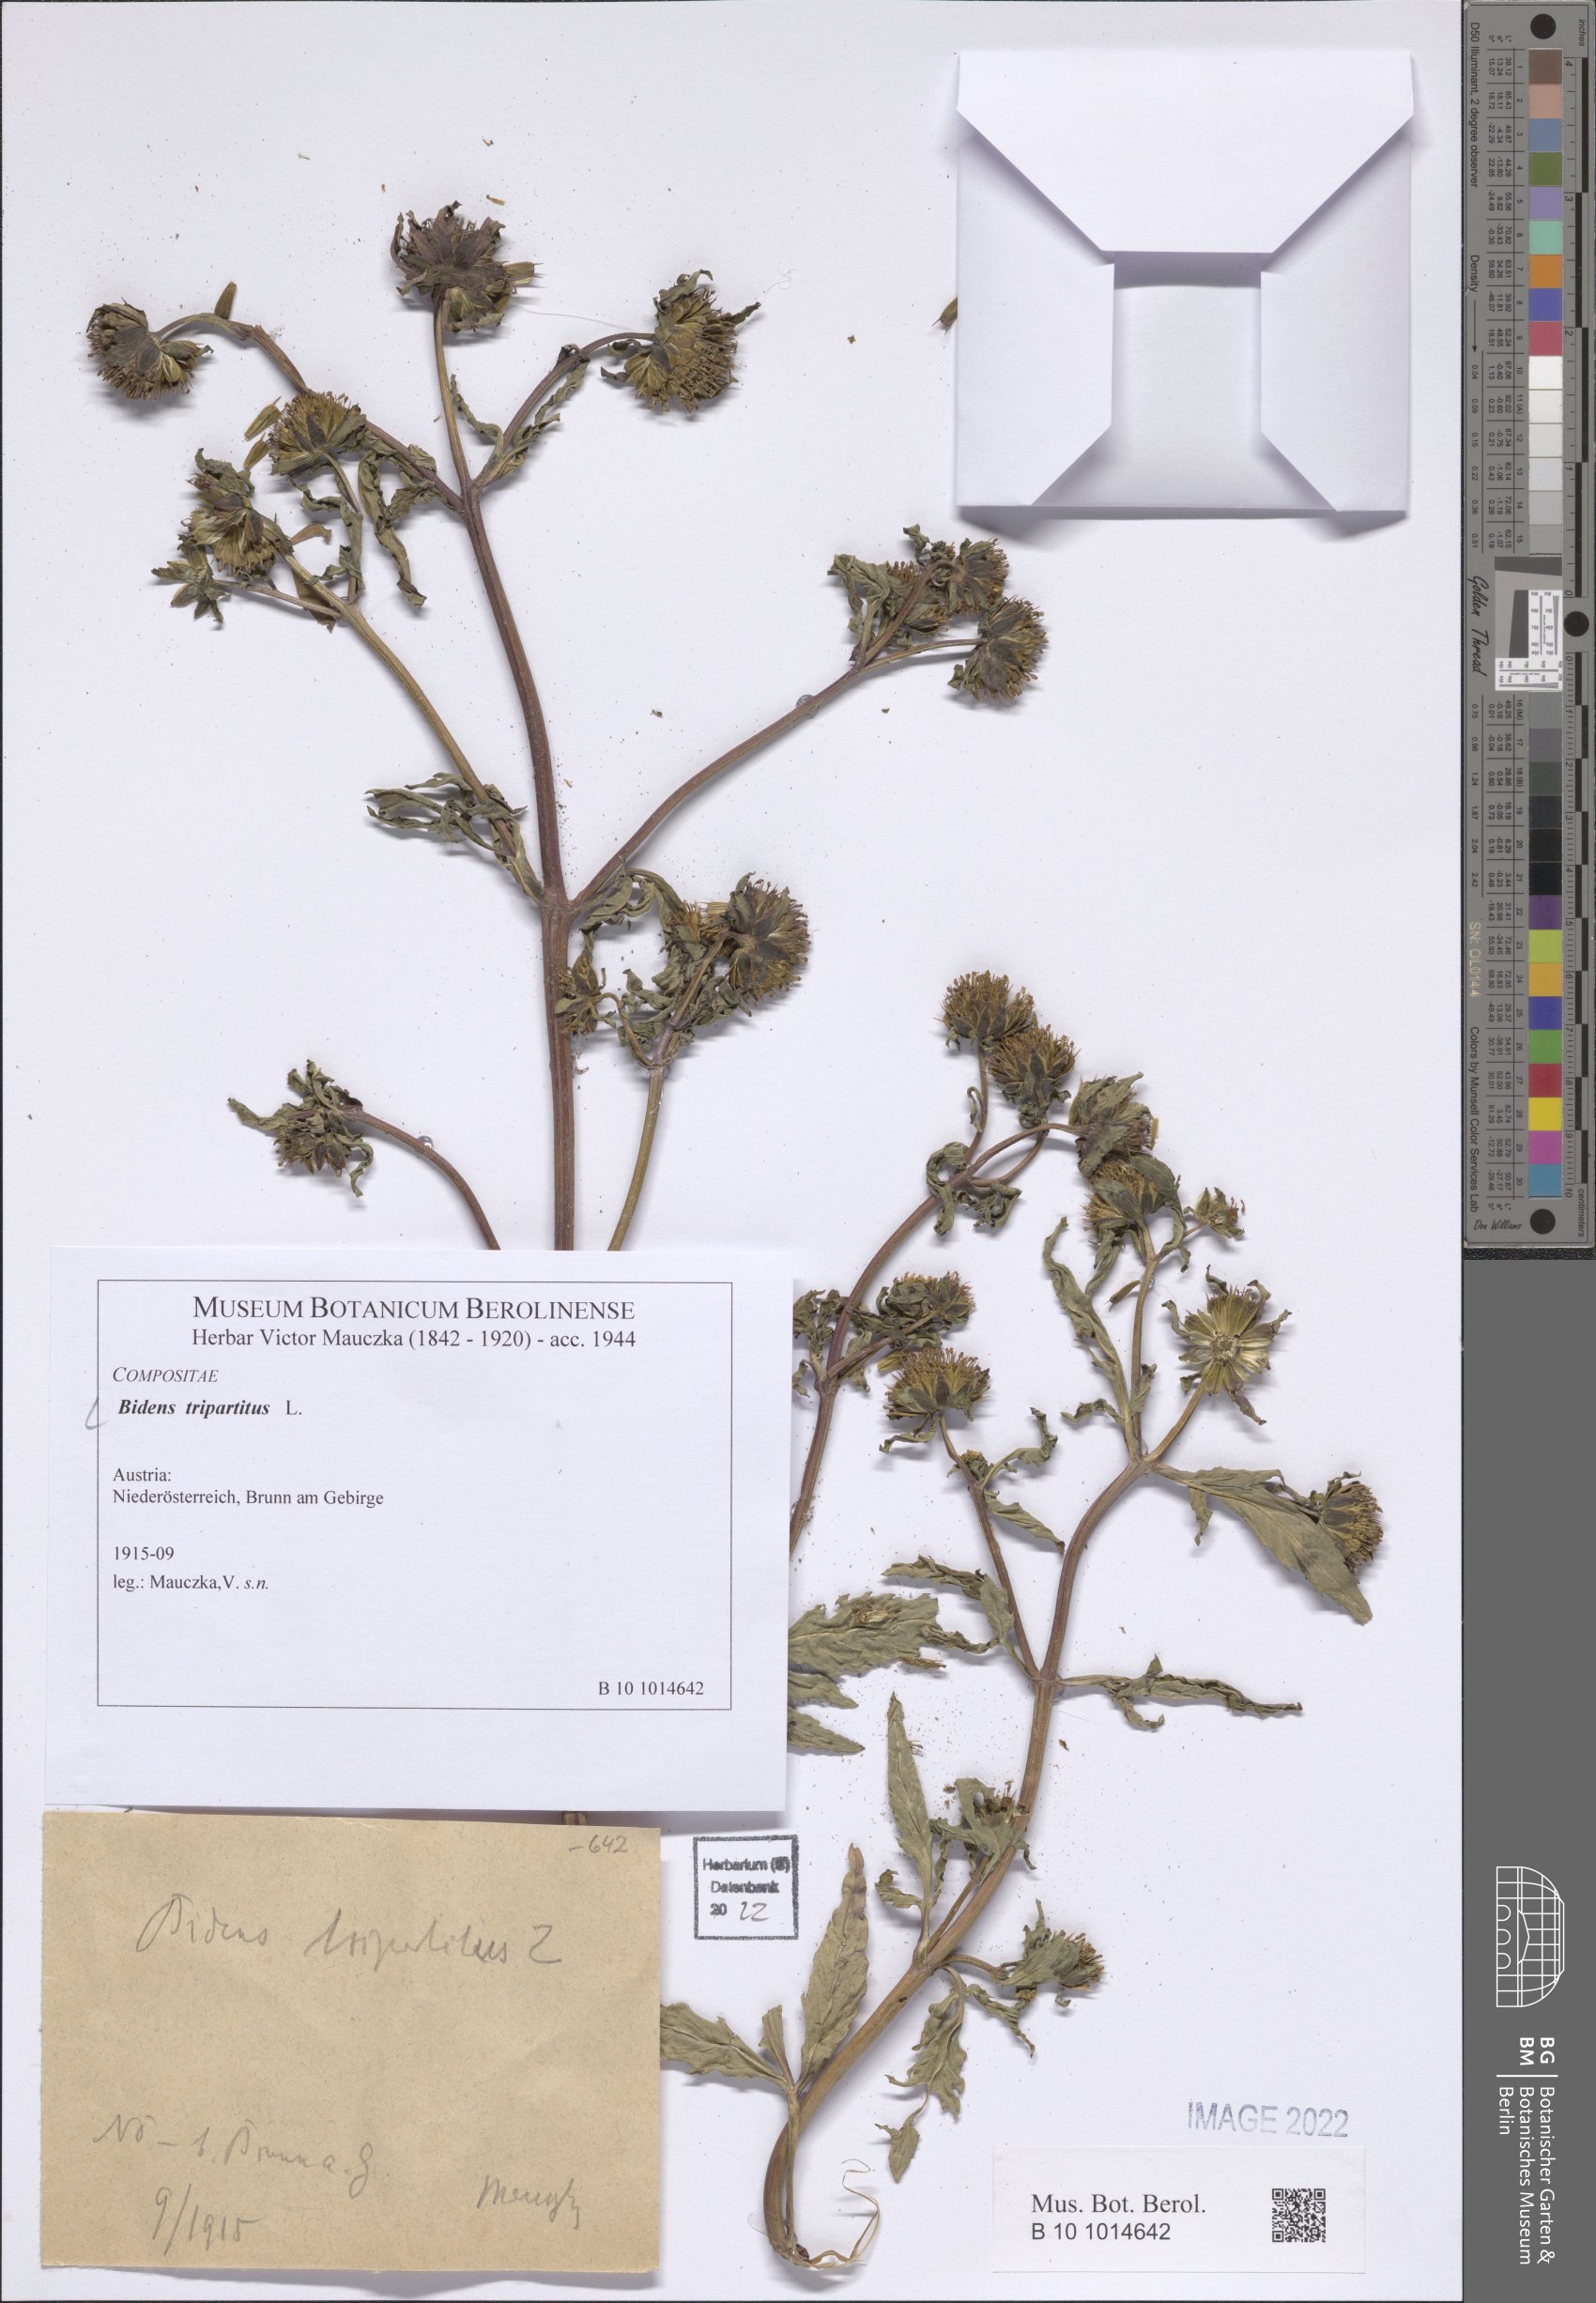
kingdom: Plantae
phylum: Tracheophyta
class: Magnoliopsida
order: Asterales
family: Asteraceae
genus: Bidens
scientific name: Bidens tripartita
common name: Trifid bur-marigold
